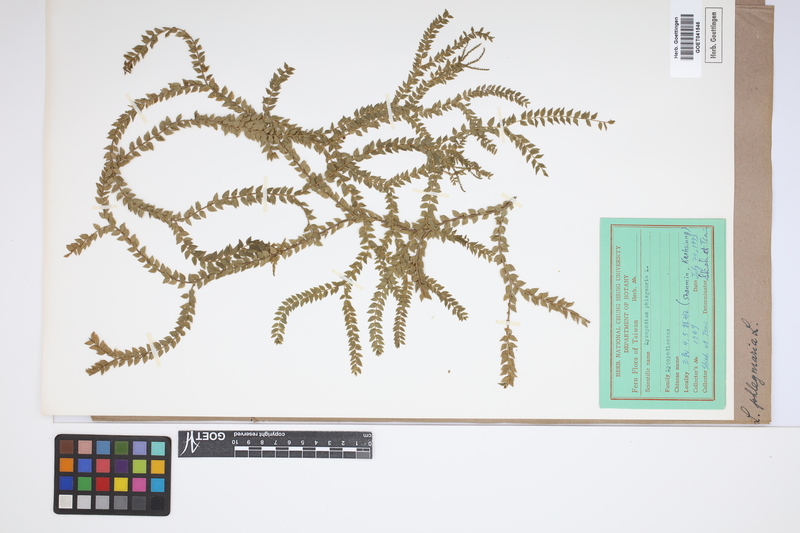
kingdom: Plantae
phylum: Tracheophyta
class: Lycopodiopsida
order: Lycopodiales
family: Lycopodiaceae
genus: Phlegmariurus
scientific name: Phlegmariurus phlegmaria
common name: Coarse tassel-fern
